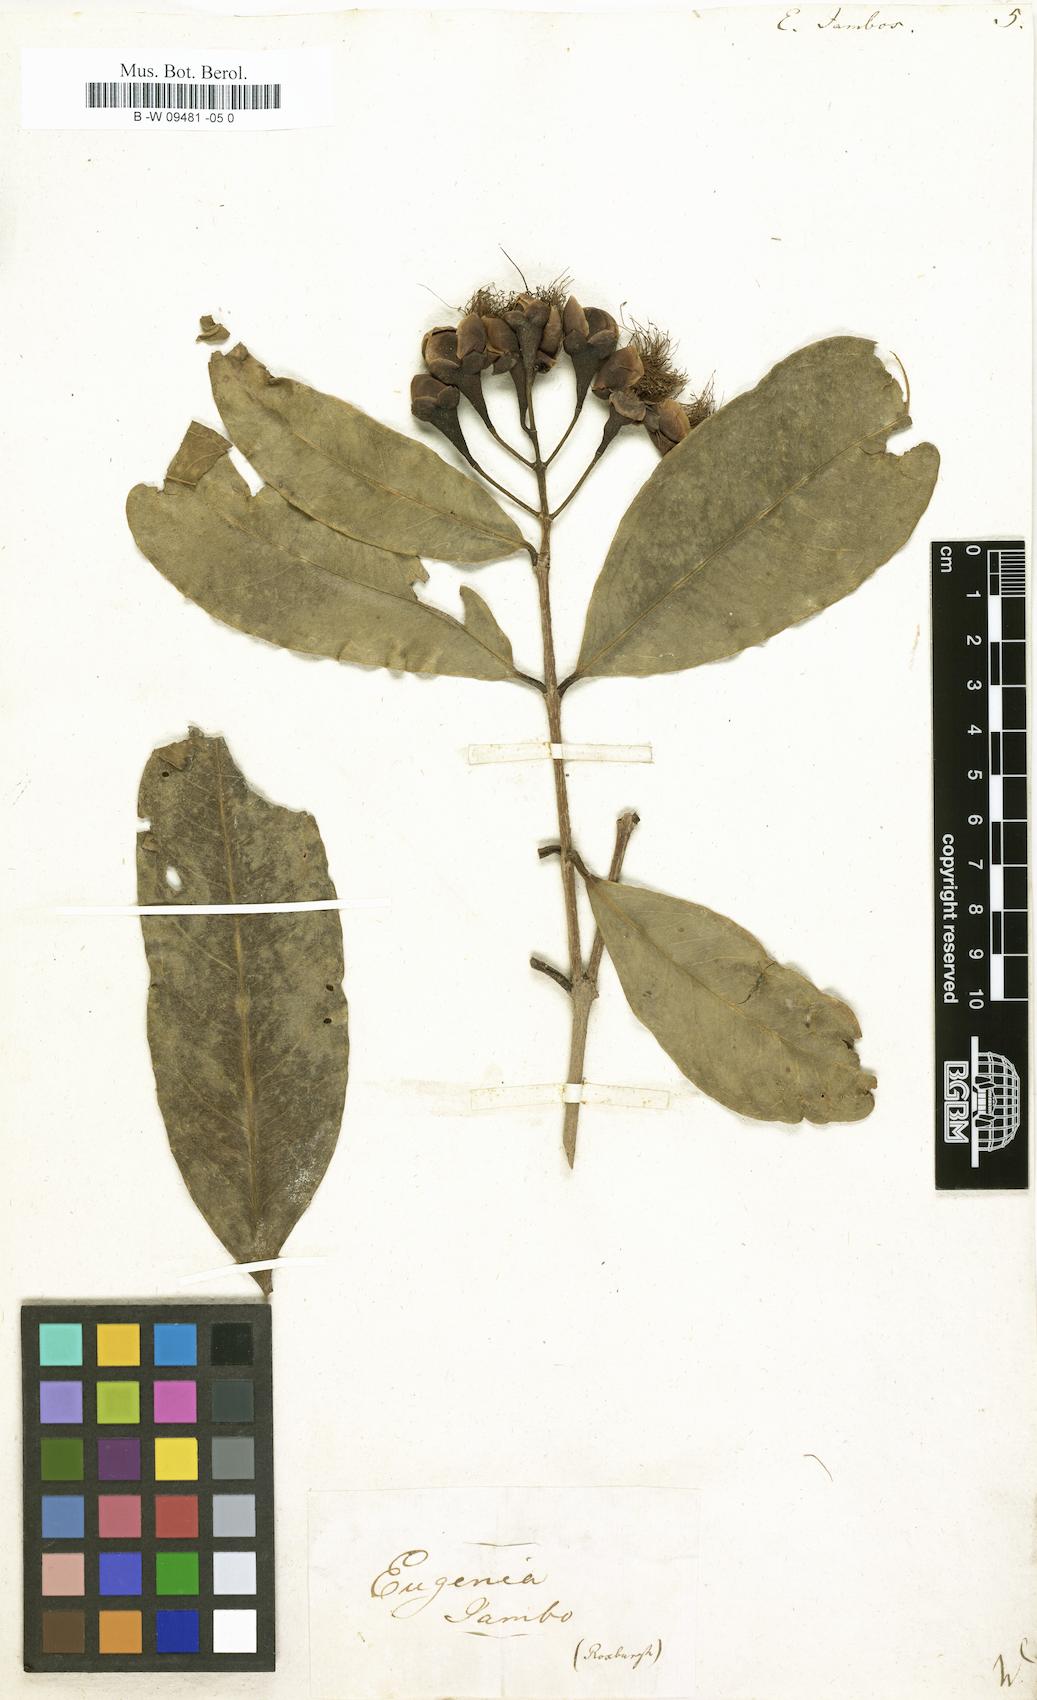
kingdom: Plantae
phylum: Tracheophyta
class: Magnoliopsida
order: Myrtales
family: Myrtaceae
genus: Syzygium
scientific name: Syzygium jambos
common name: Malabar plum
